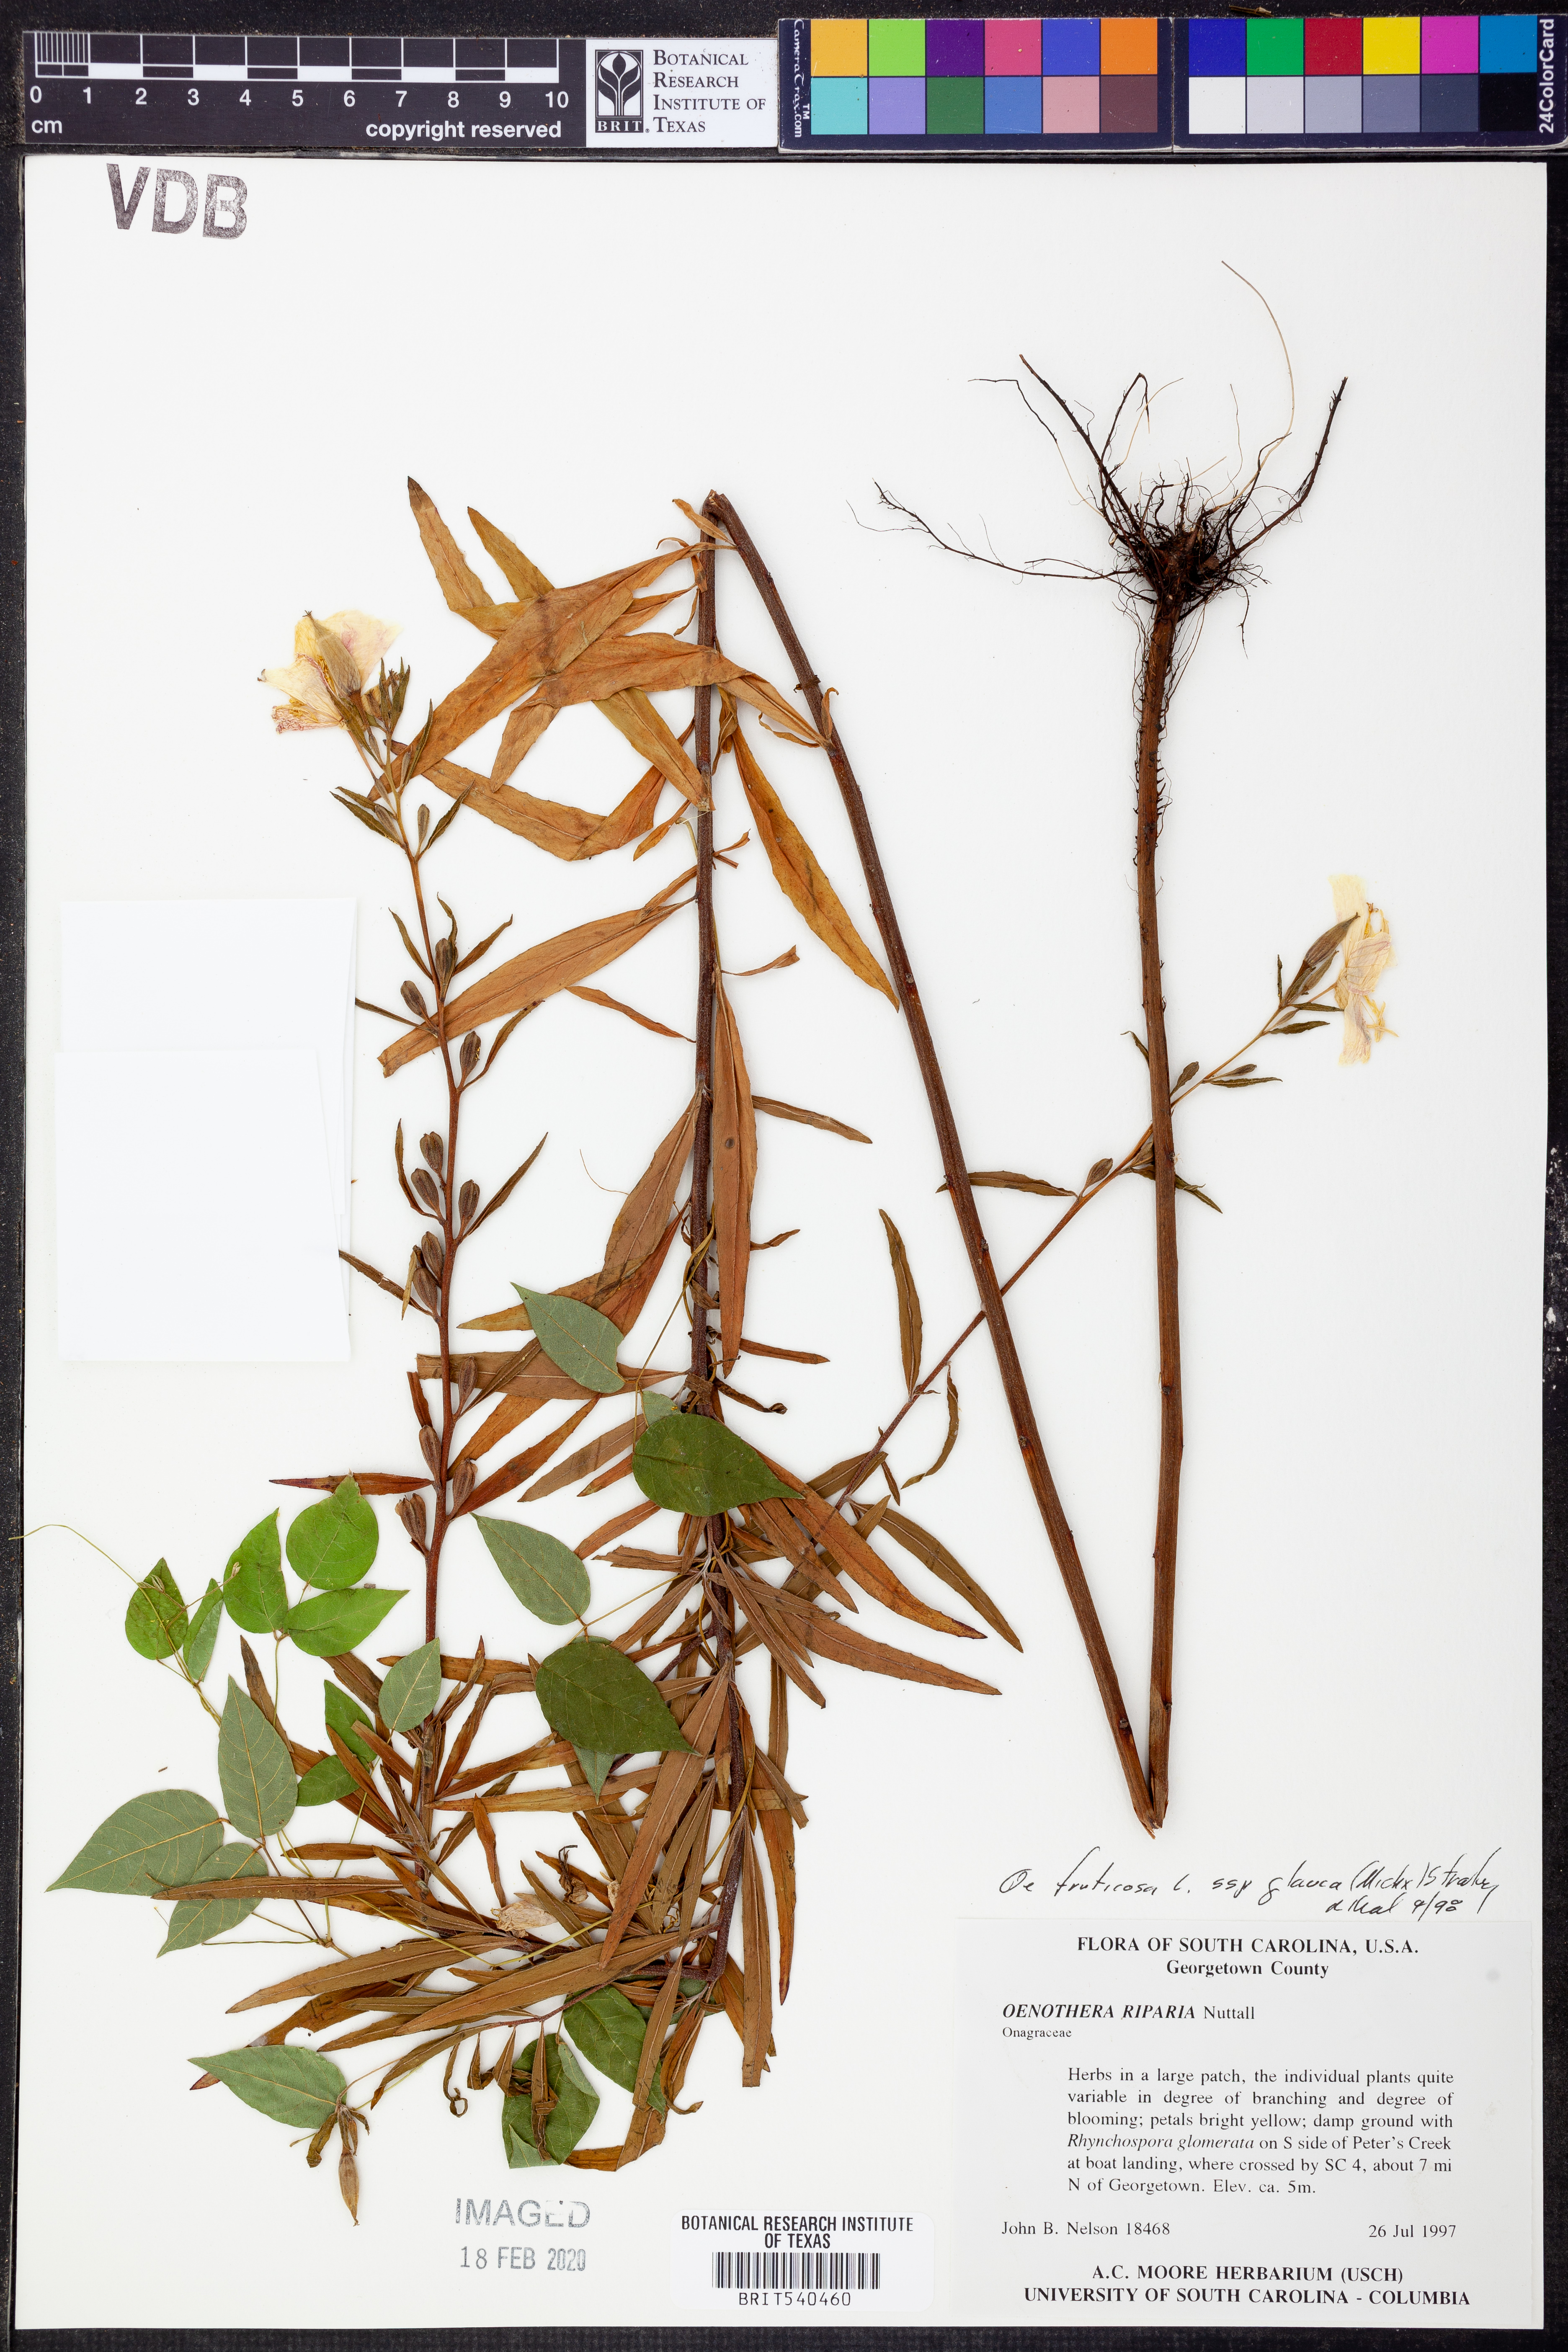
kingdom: Plantae
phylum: Tracheophyta
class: Magnoliopsida
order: Myrtales
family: Onagraceae
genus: Oenothera
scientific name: Oenothera tetragona
